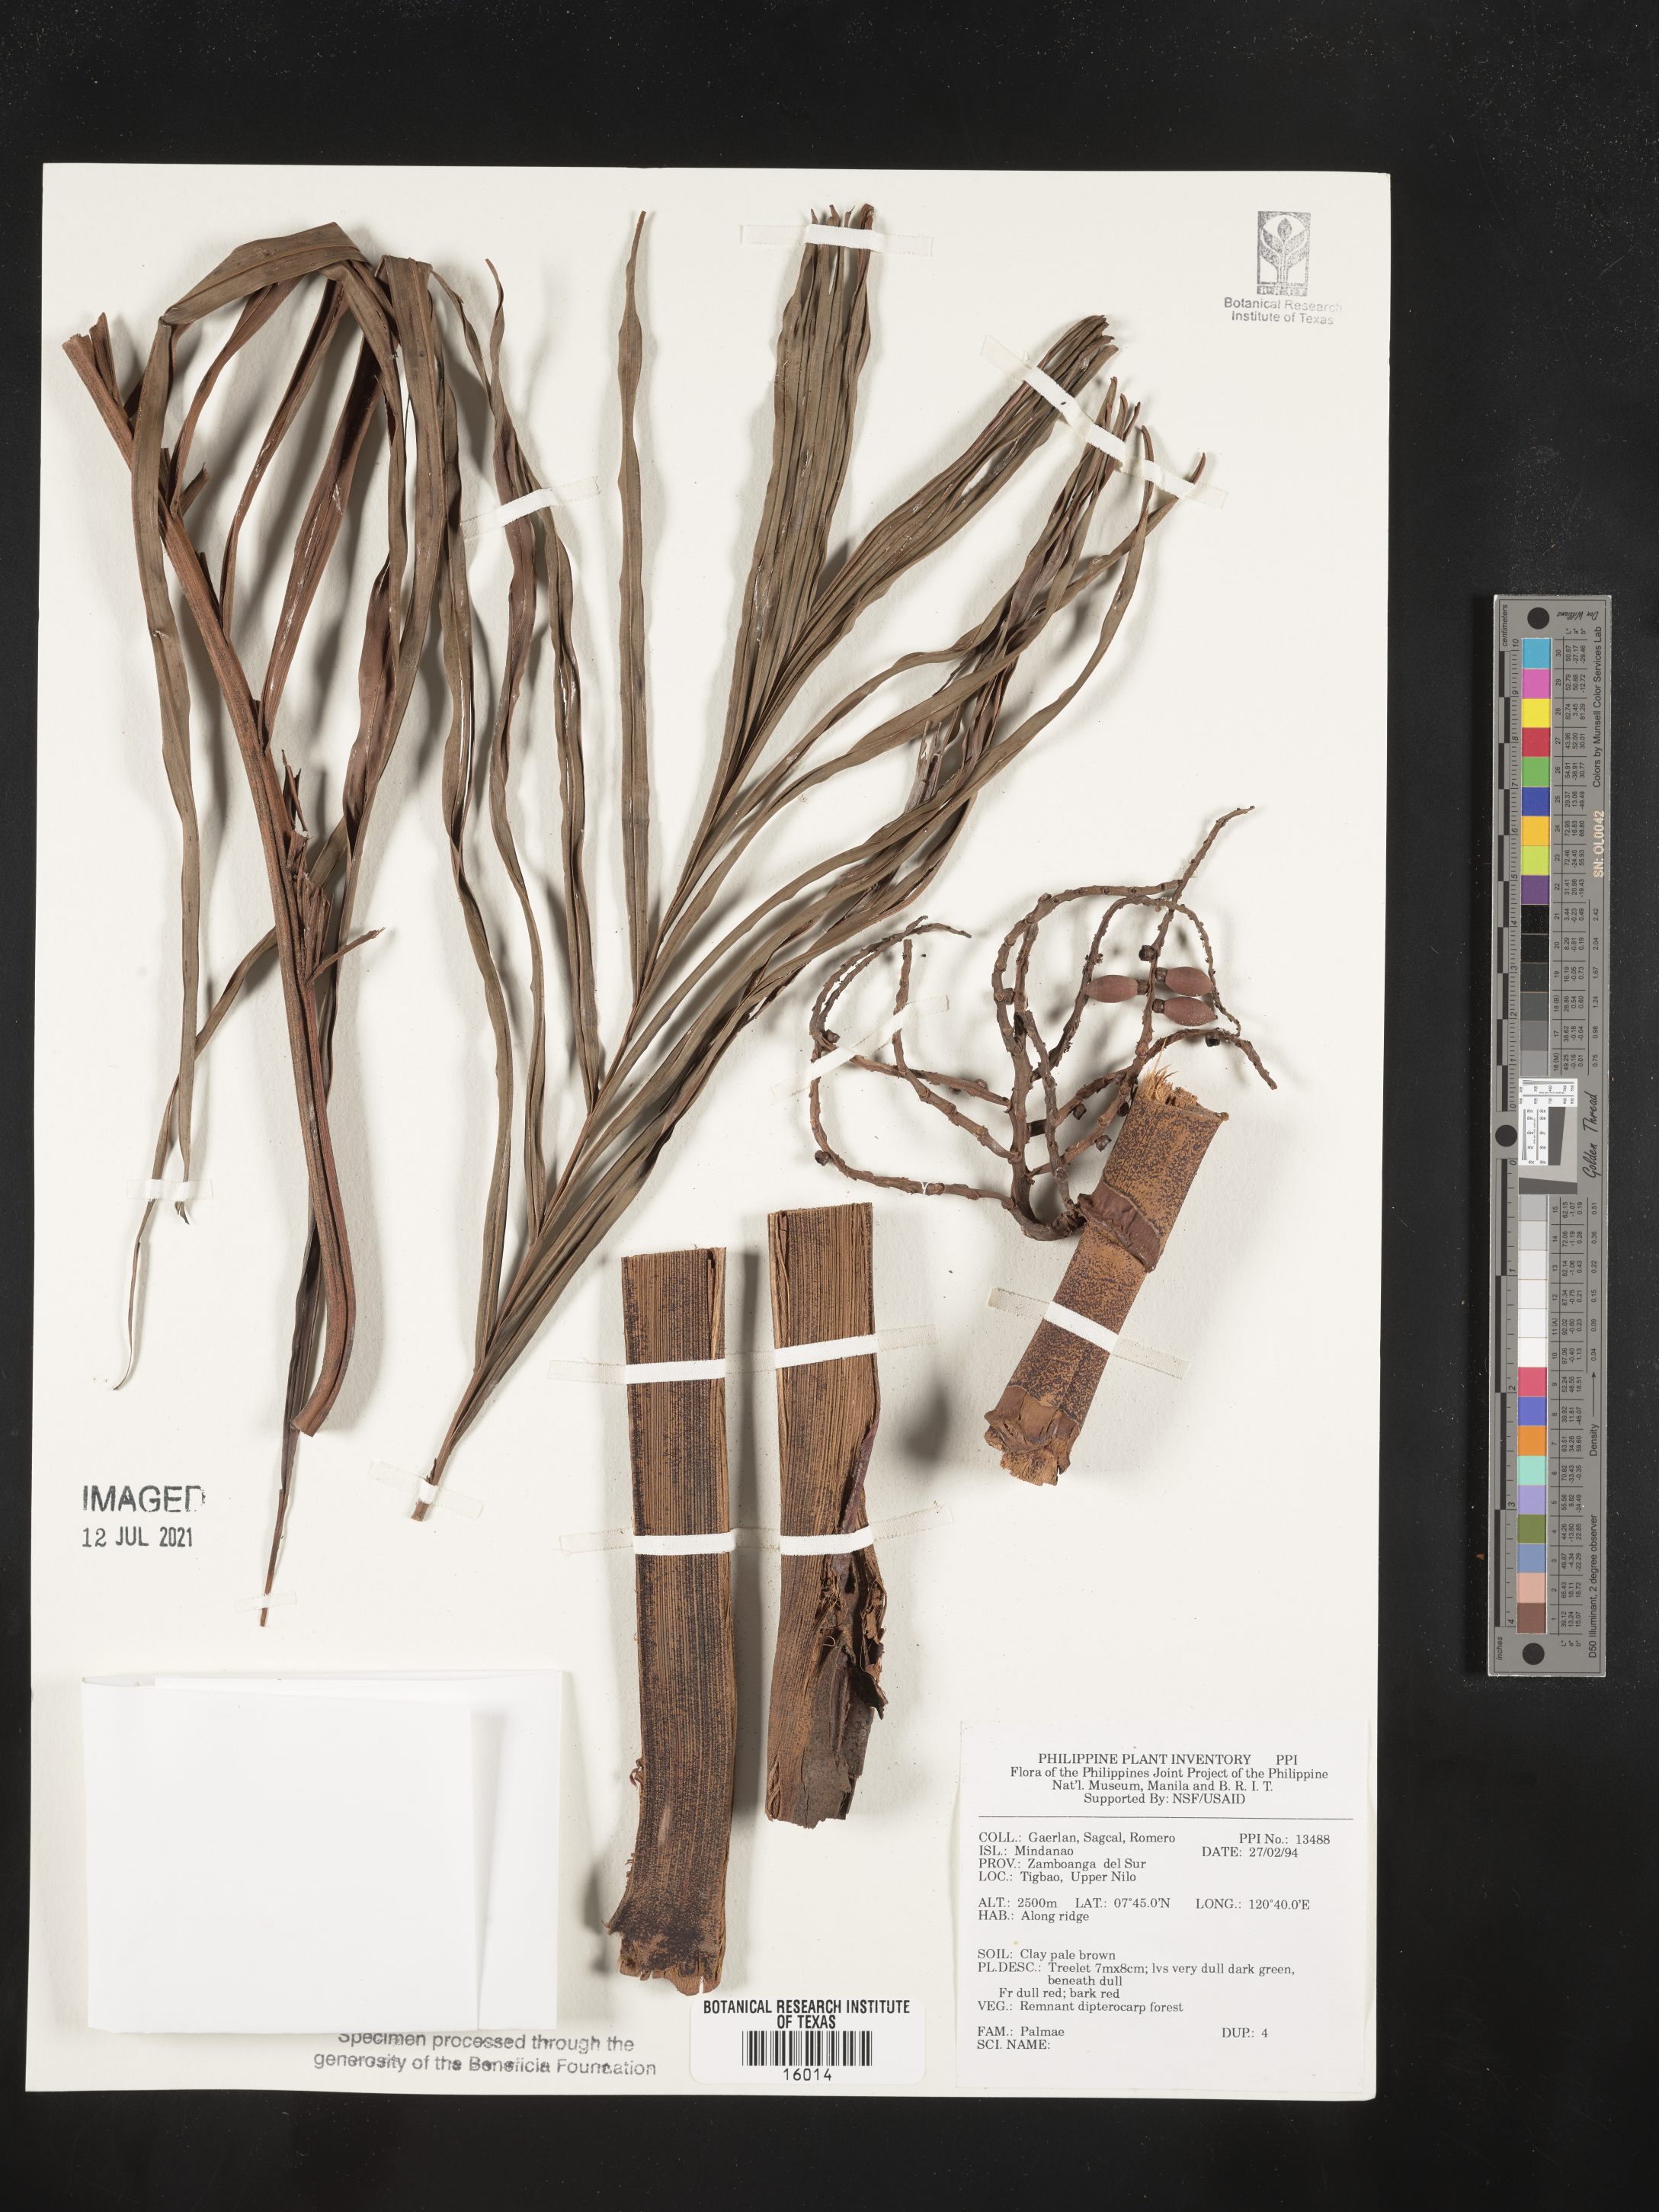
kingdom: Plantae
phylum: Tracheophyta
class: Liliopsida
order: Arecales
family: Arecaceae
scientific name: Arecaceae
